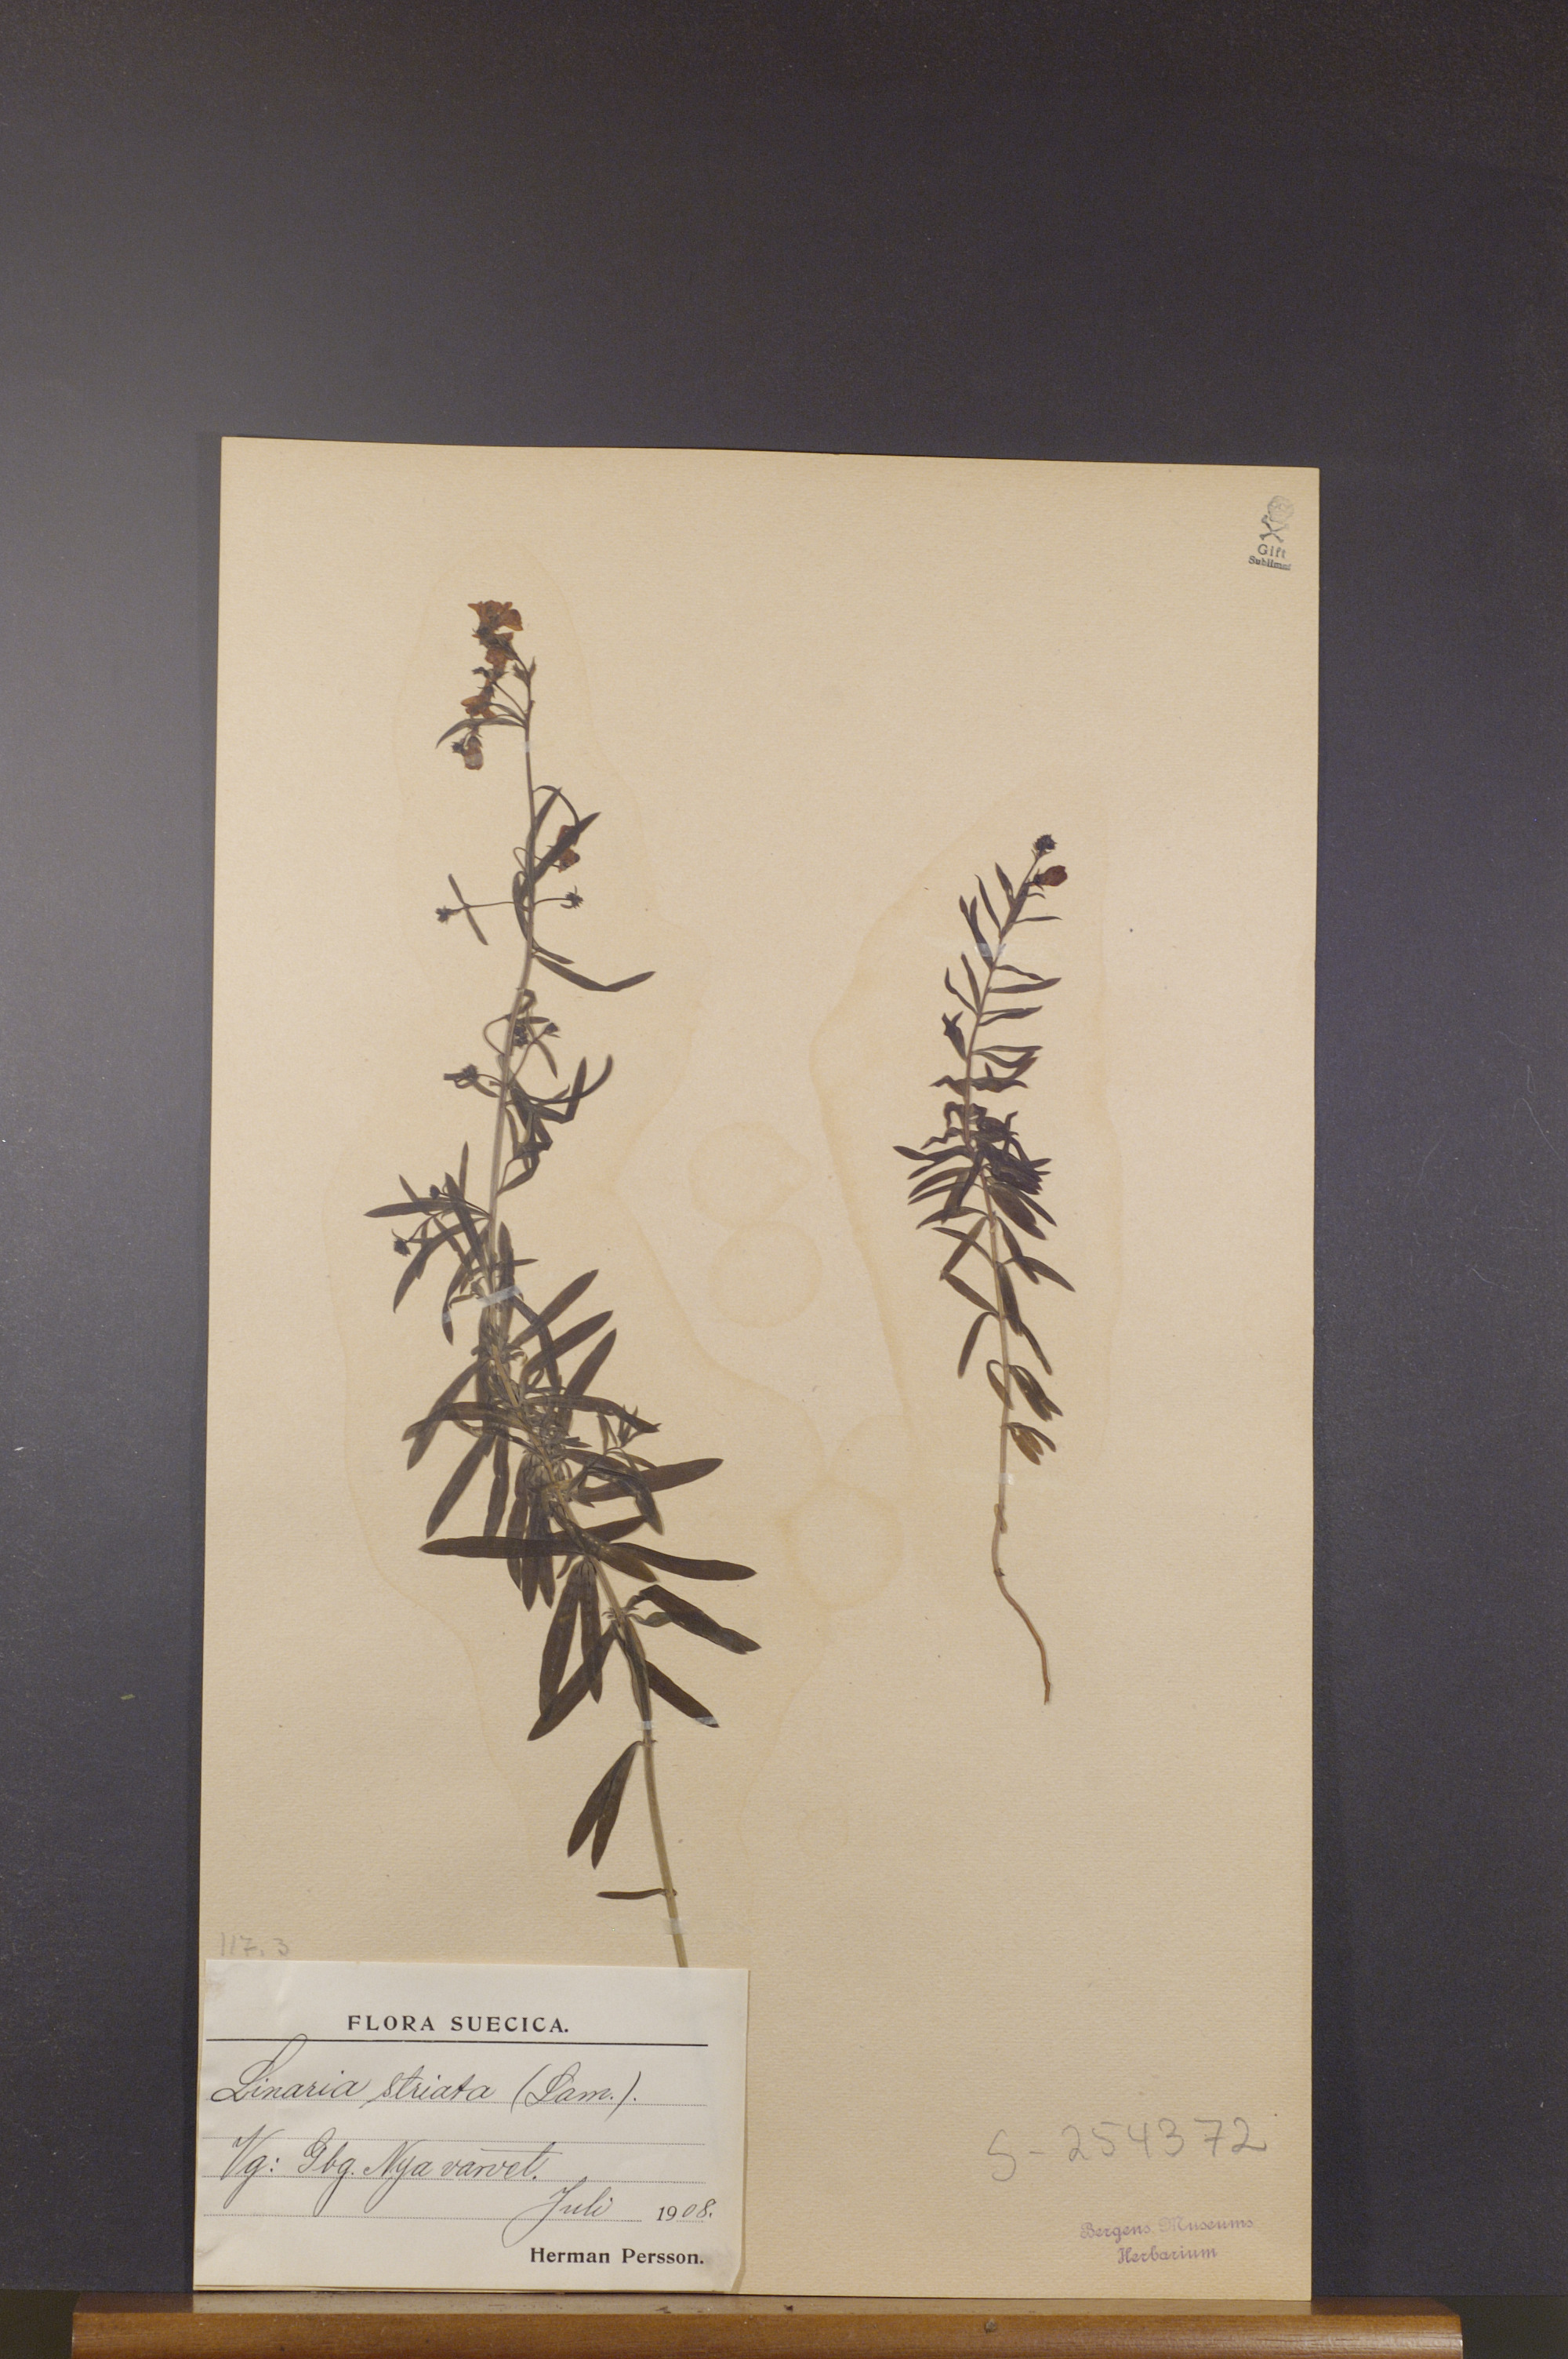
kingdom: Plantae
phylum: Tracheophyta
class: Magnoliopsida
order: Lamiales
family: Plantaginaceae
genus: Linaria
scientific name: Linaria repens
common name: Pale toadflax
